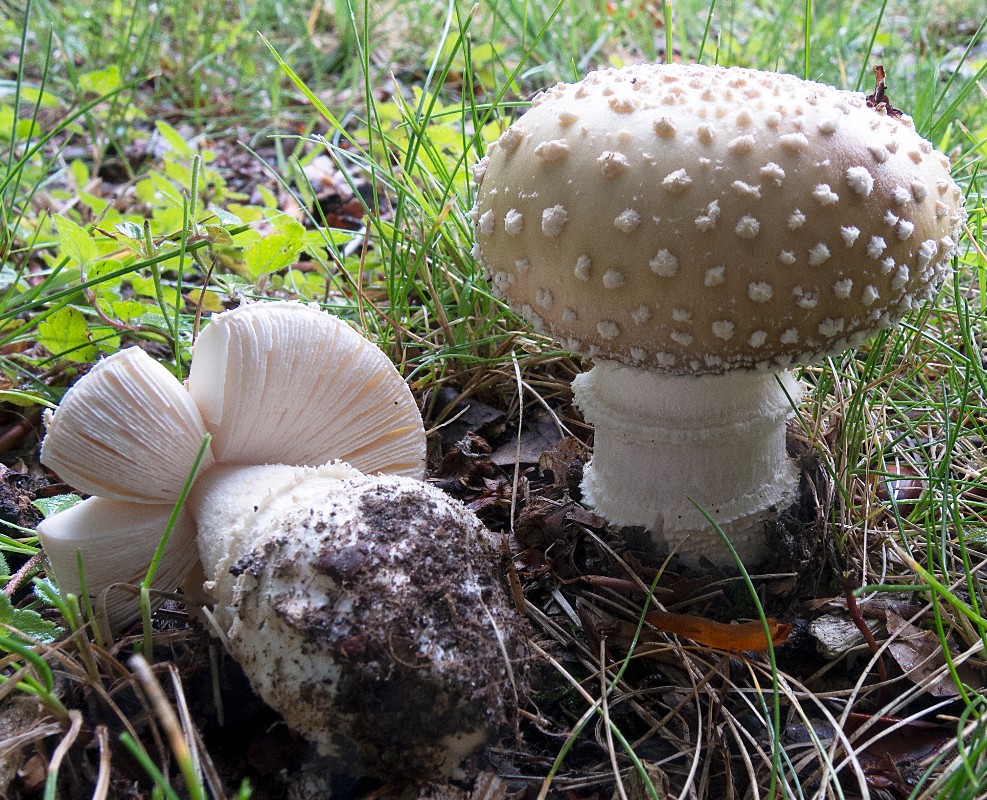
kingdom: Fungi
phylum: Basidiomycota
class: Agaricomycetes
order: Agaricales
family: Amanitaceae
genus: Amanita
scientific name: Amanita pantherina
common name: panter-fluesvamp
